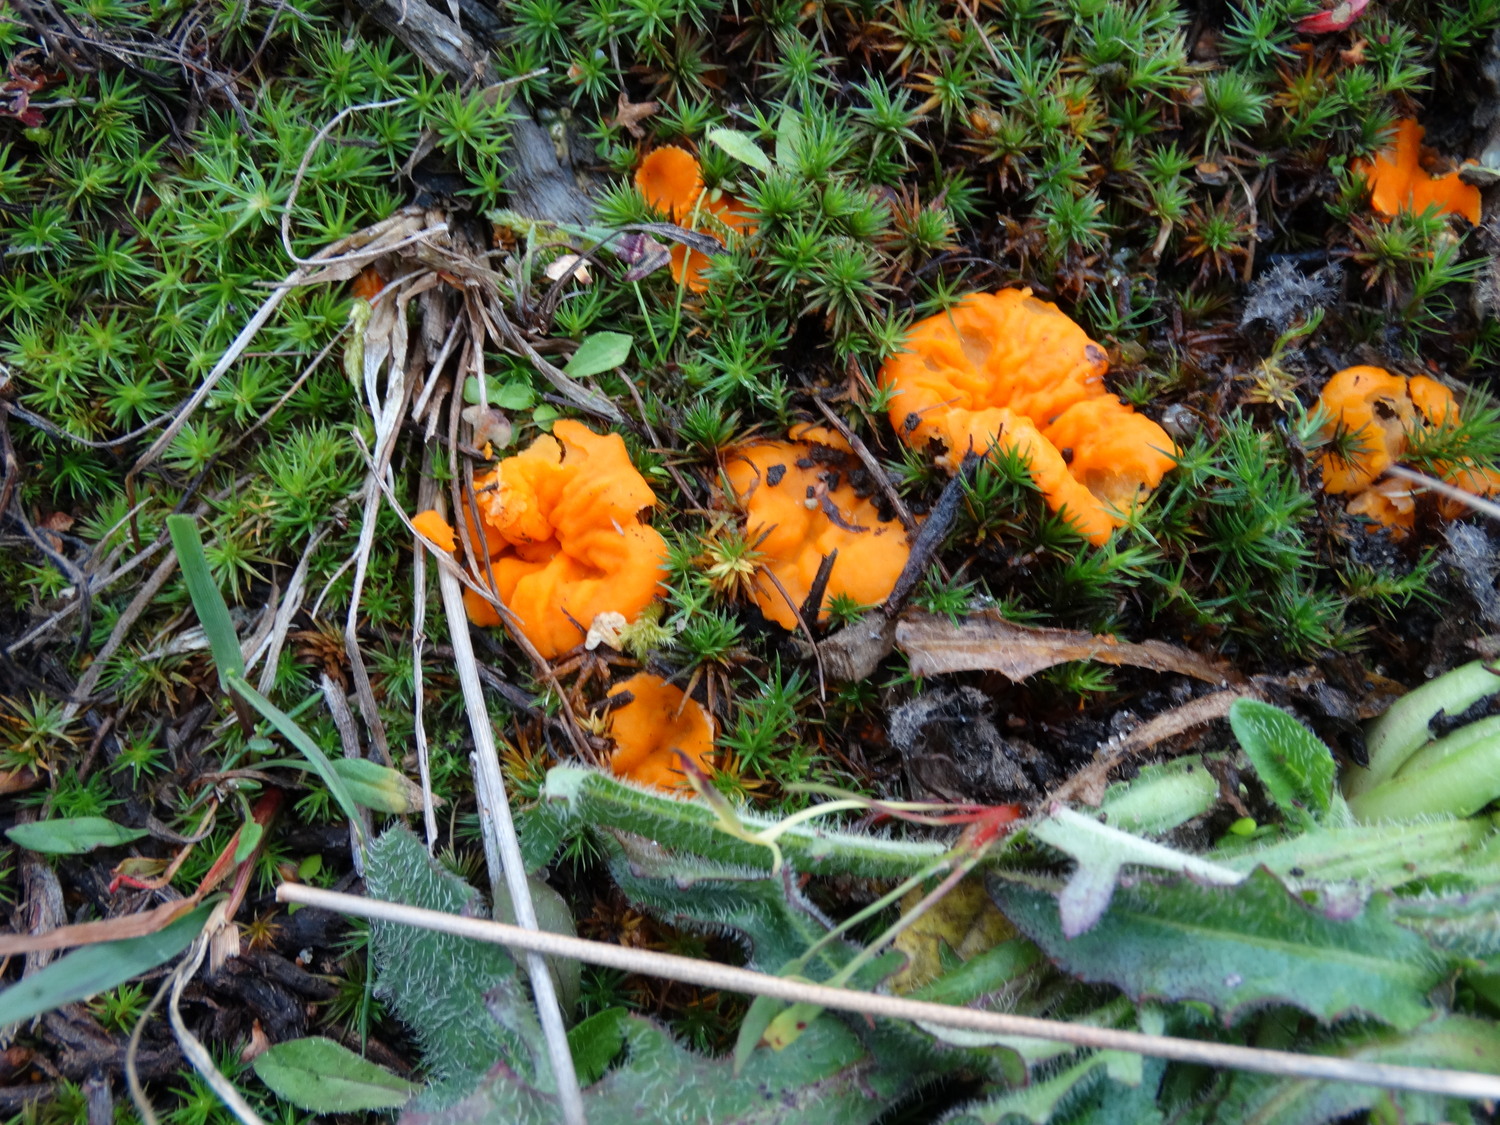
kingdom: Fungi
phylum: Ascomycota
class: Pezizomycetes
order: Pezizales
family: Pyronemataceae
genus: Neottiella
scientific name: Neottiella
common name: mosbæger
